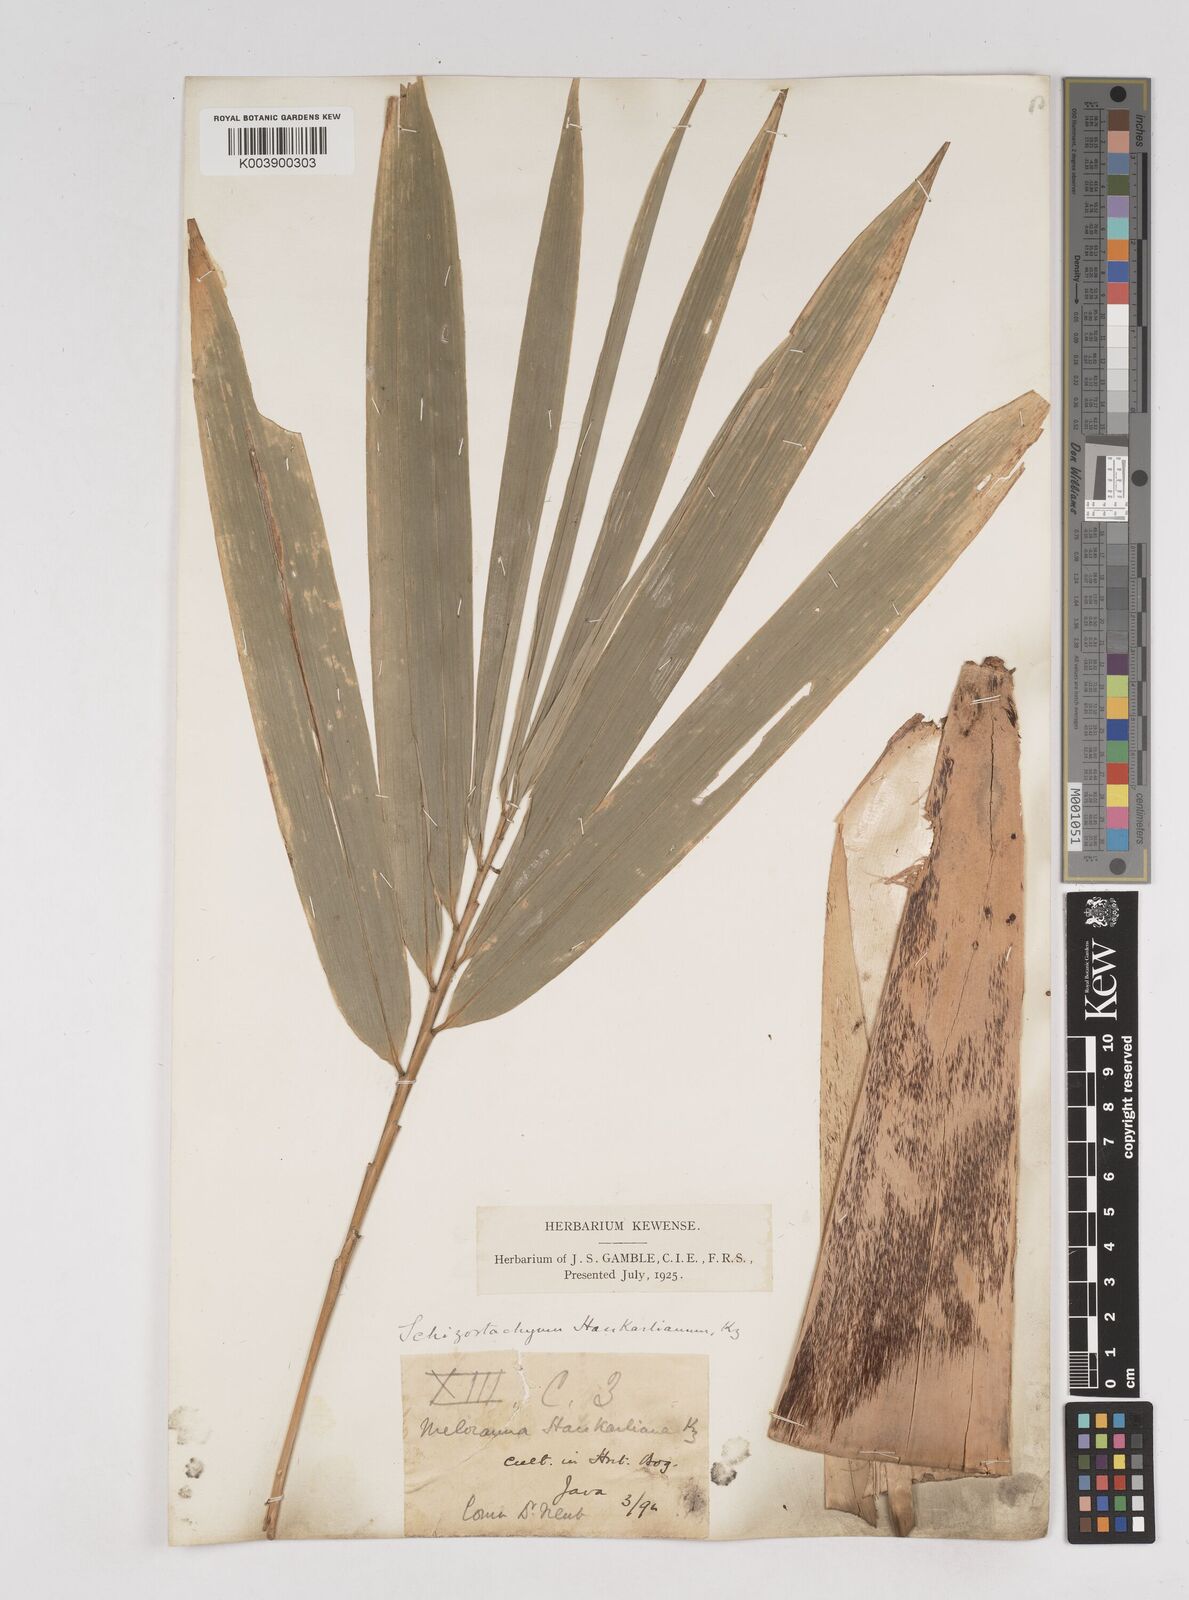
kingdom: Plantae
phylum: Tracheophyta
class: Liliopsida
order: Poales
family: Poaceae
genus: Gigantochloa
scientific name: Gigantochloa hasskarliana
